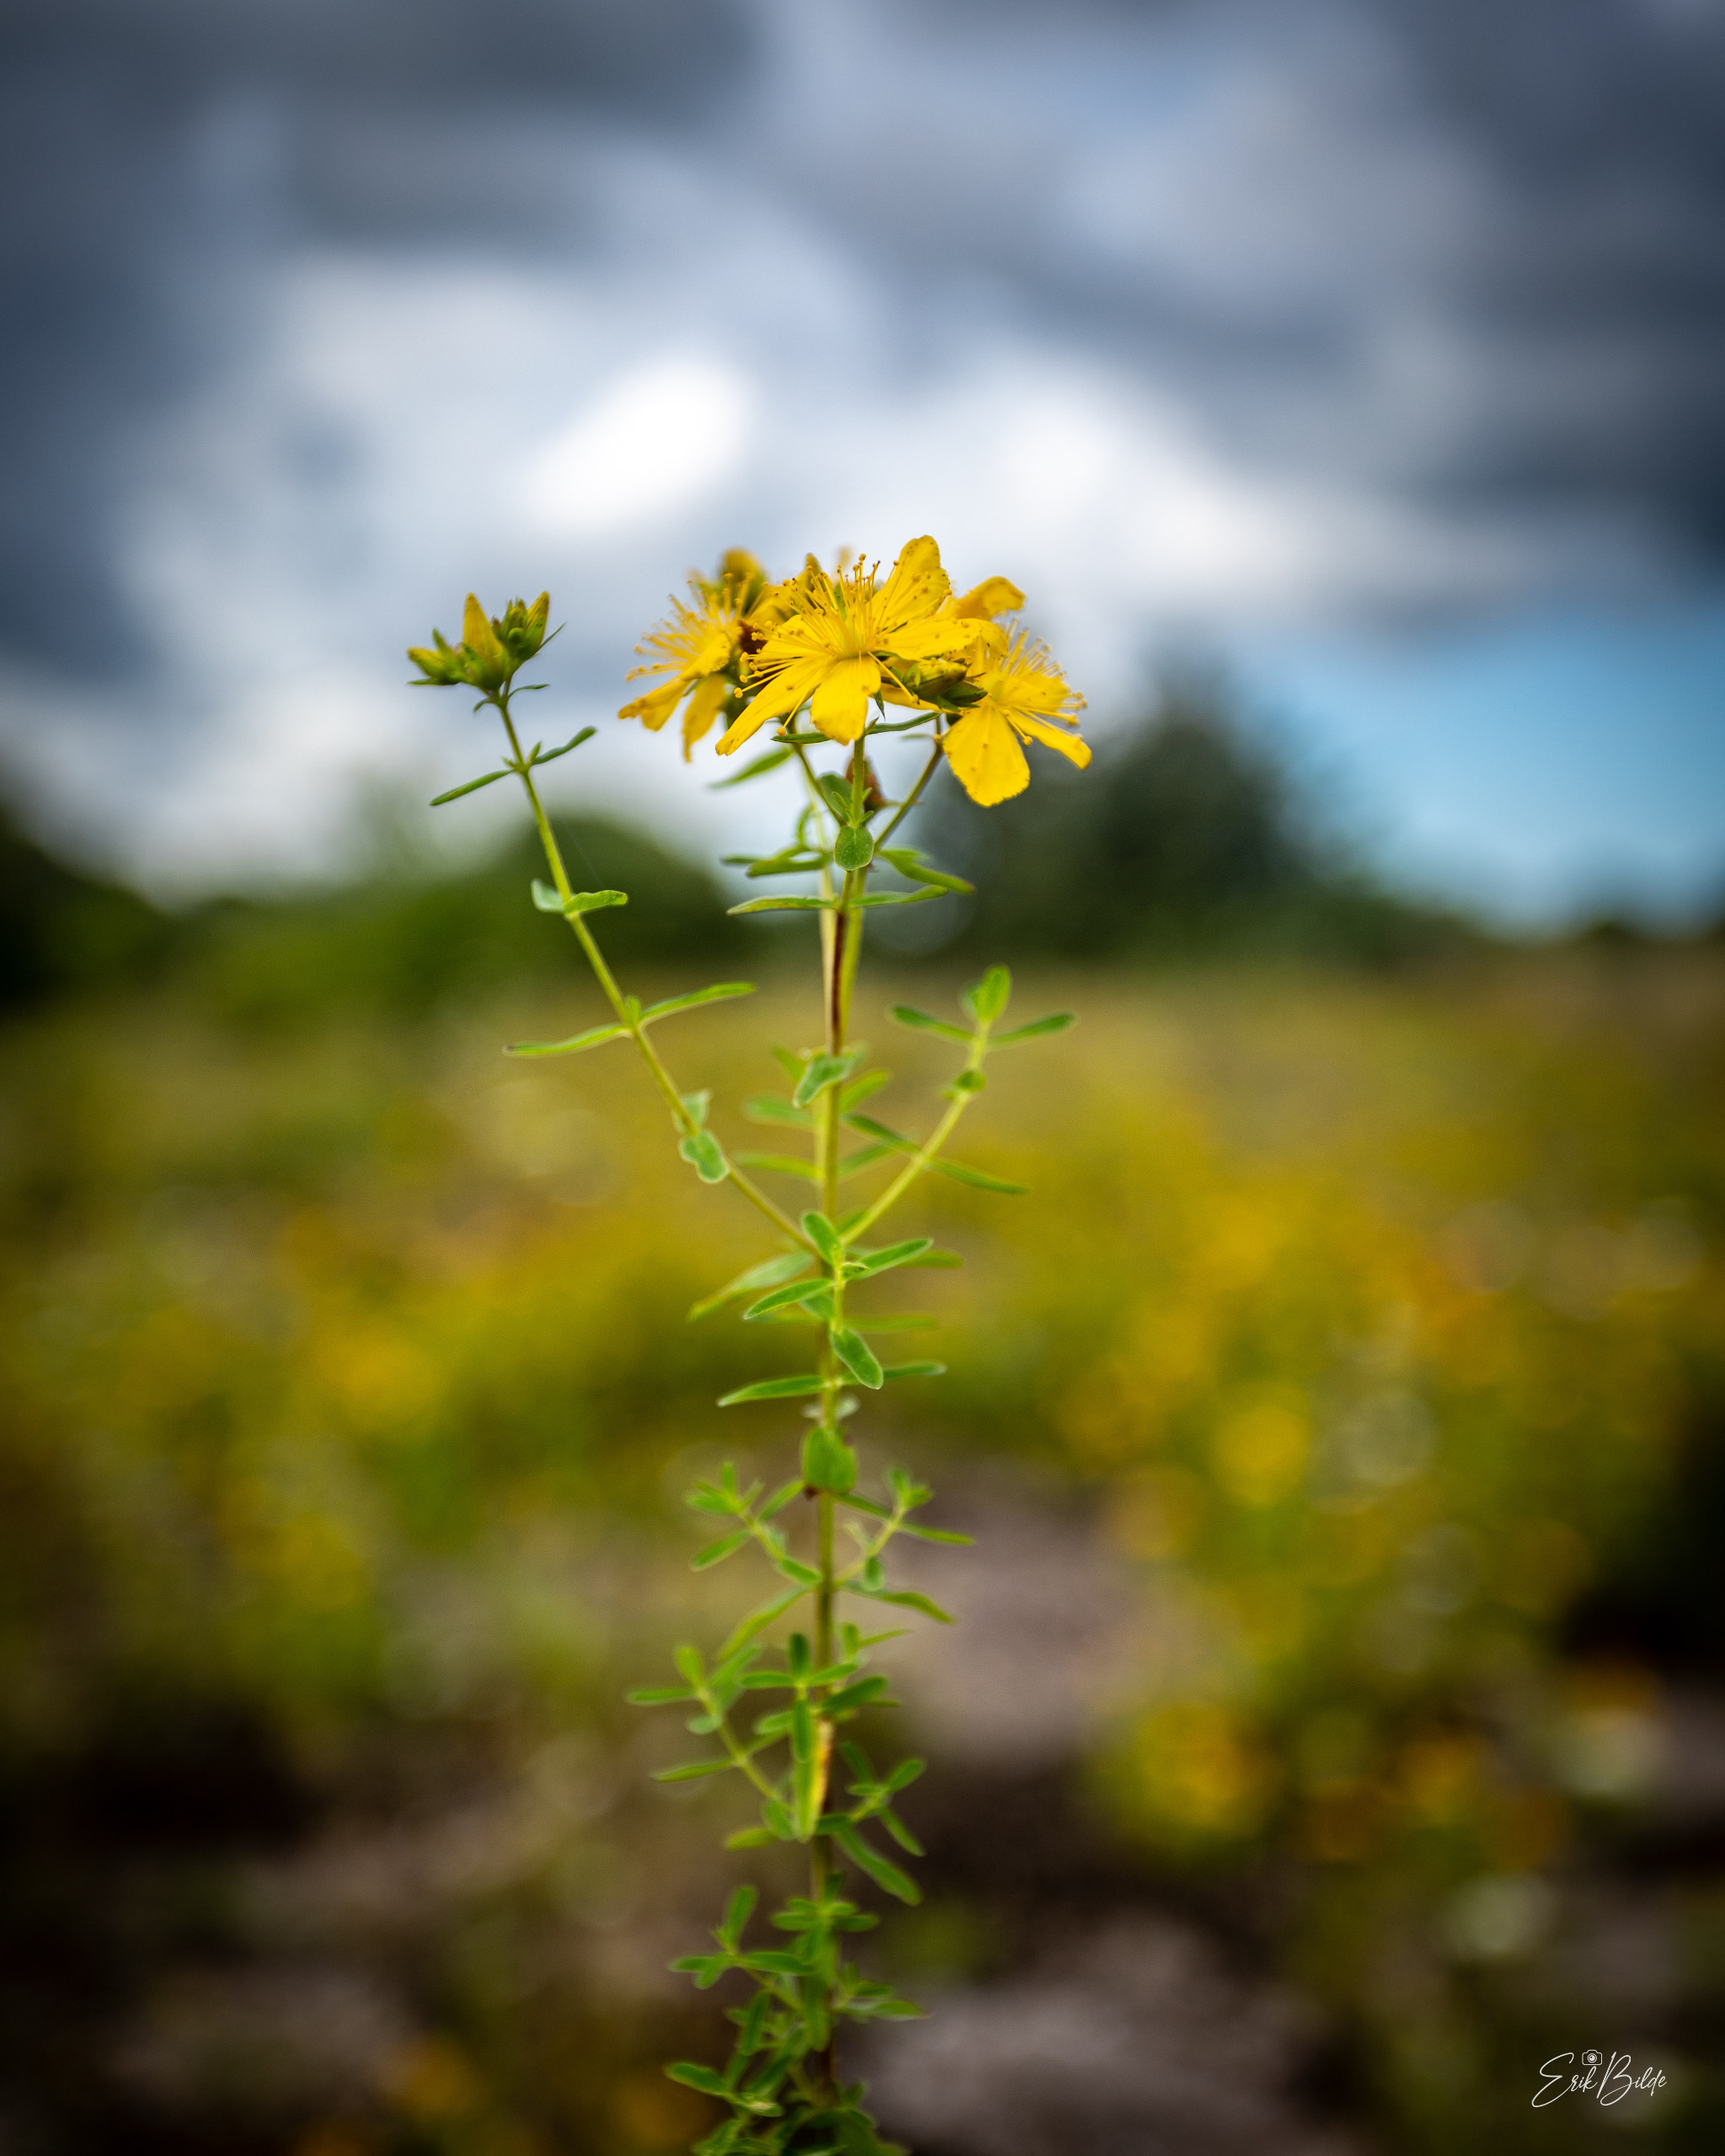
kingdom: Plantae
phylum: Tracheophyta
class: Magnoliopsida
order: Malpighiales
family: Hypericaceae
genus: Hypericum
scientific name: Hypericum perforatum
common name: Prikbladet perikon
